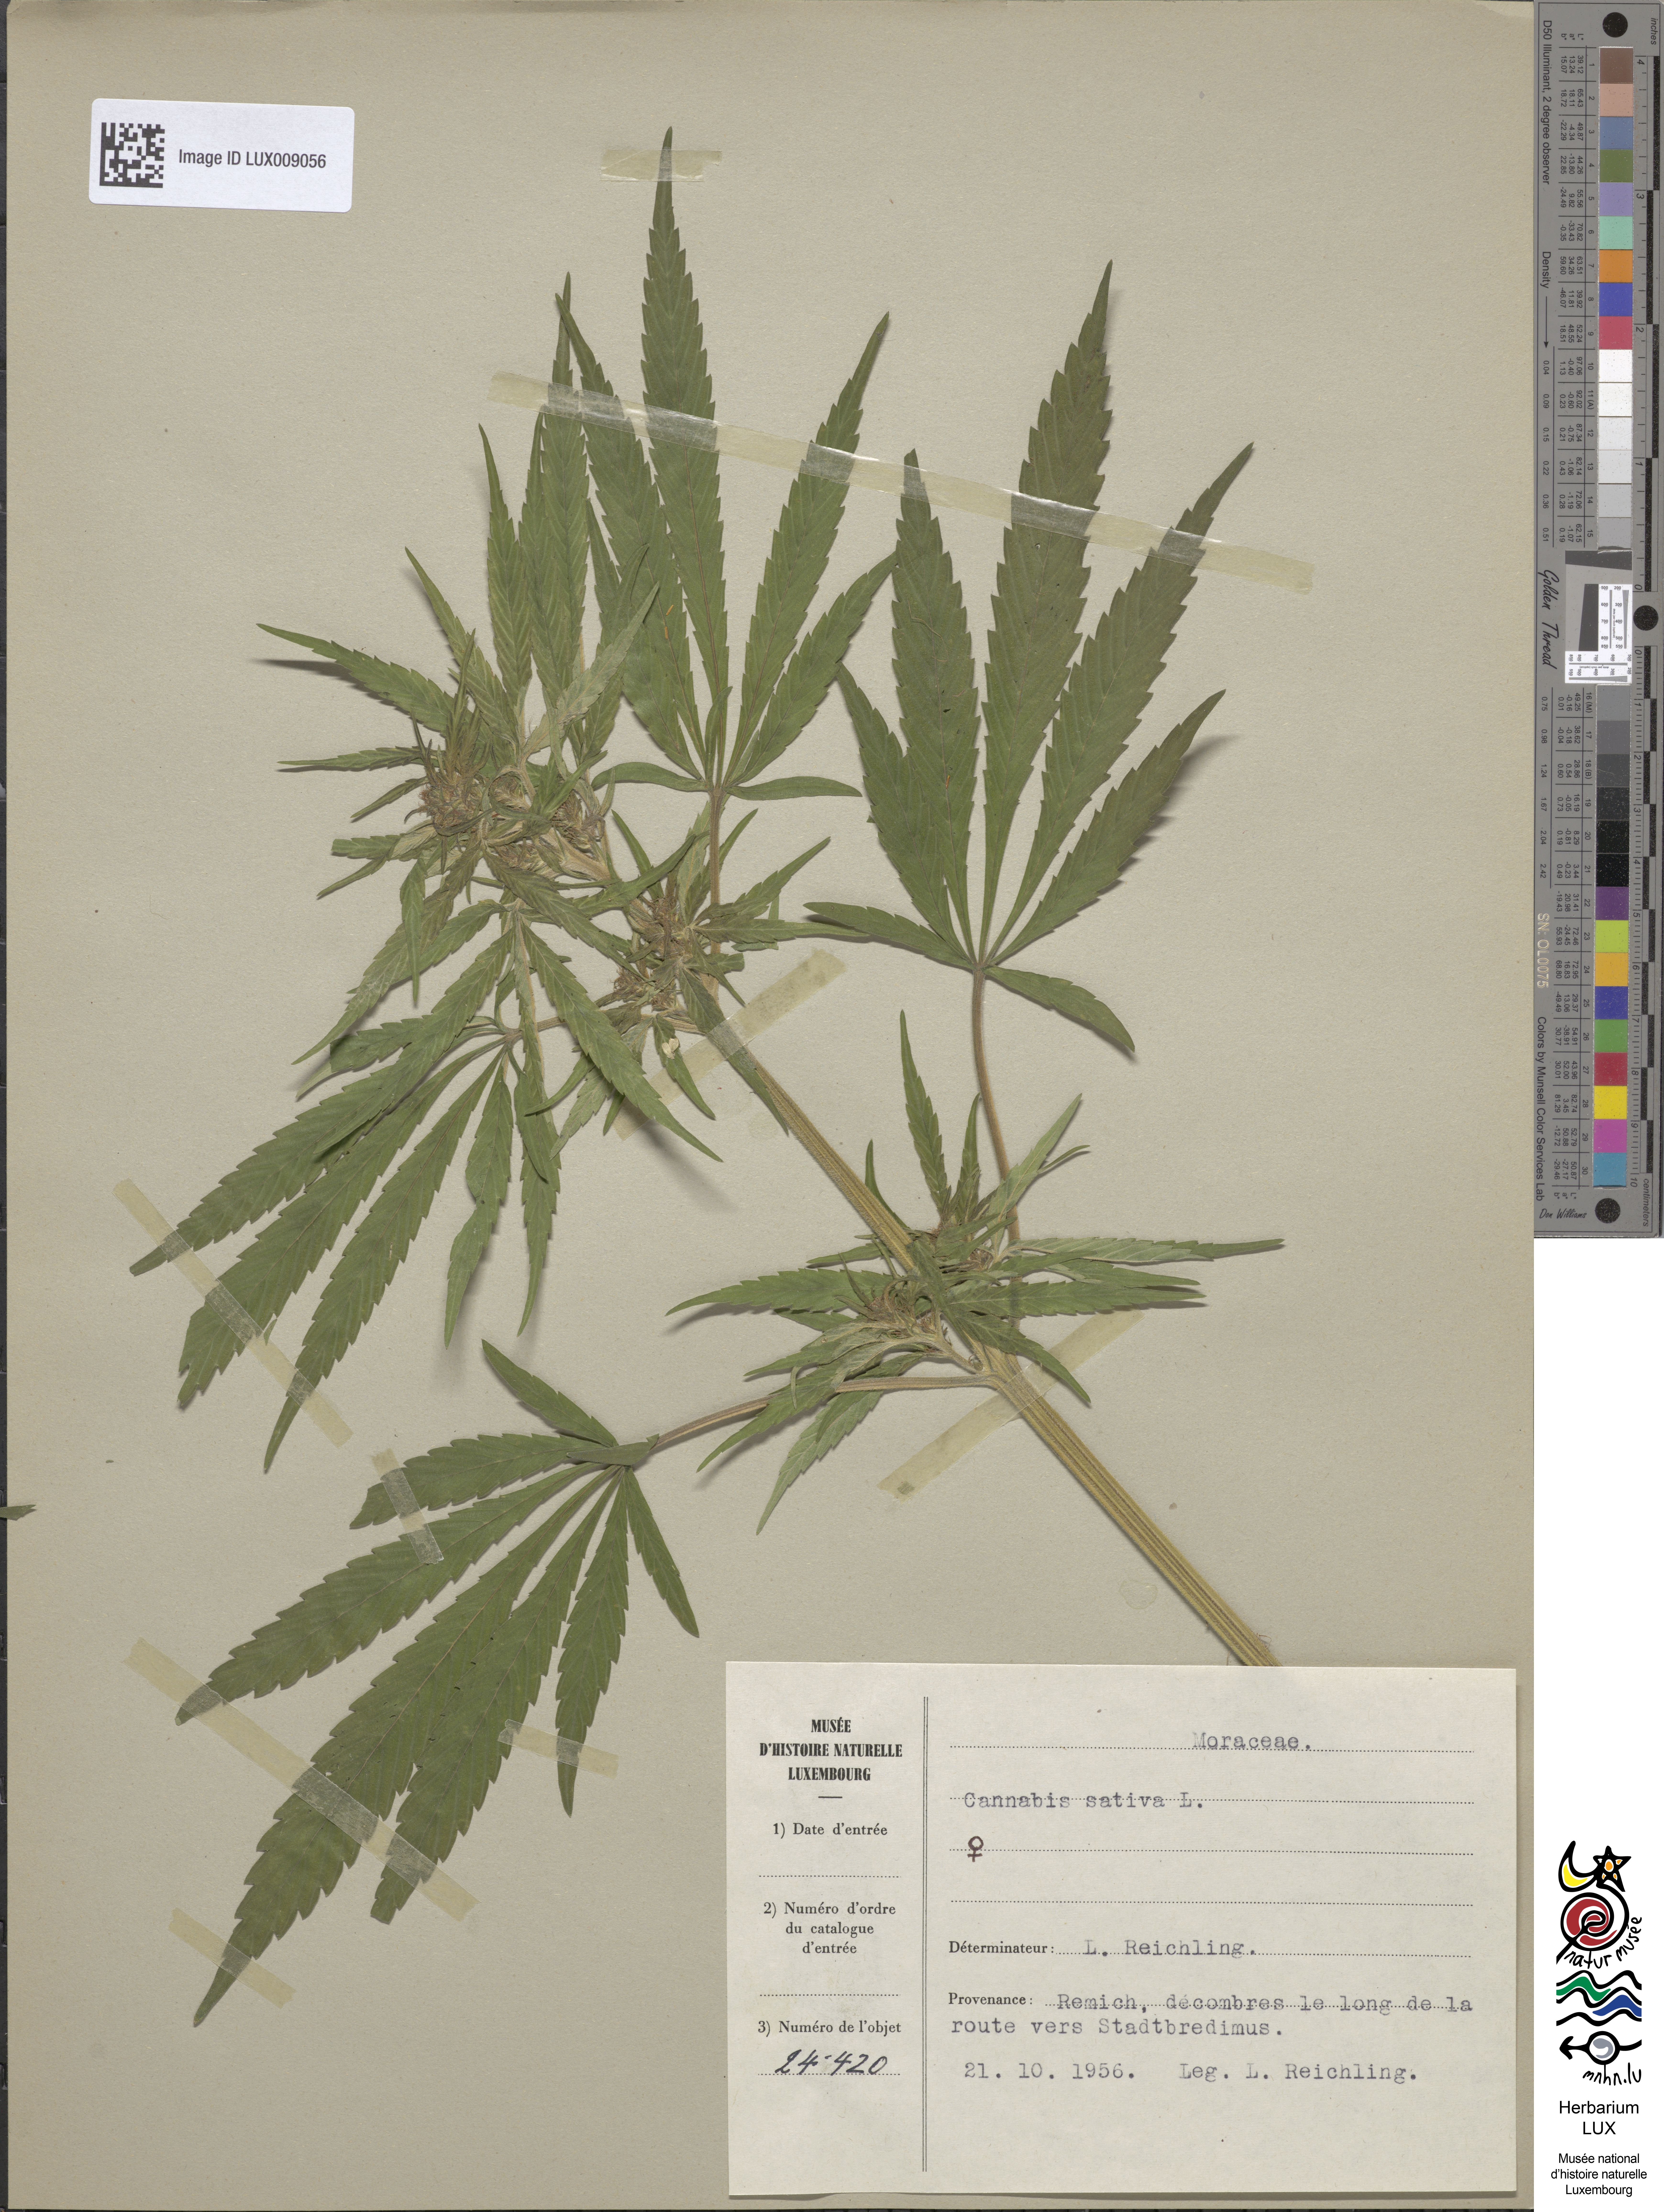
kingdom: Plantae
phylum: Tracheophyta
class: Magnoliopsida
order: Rosales
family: Cannabaceae
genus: Cannabis
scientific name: Cannabis sativa
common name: Hemp
